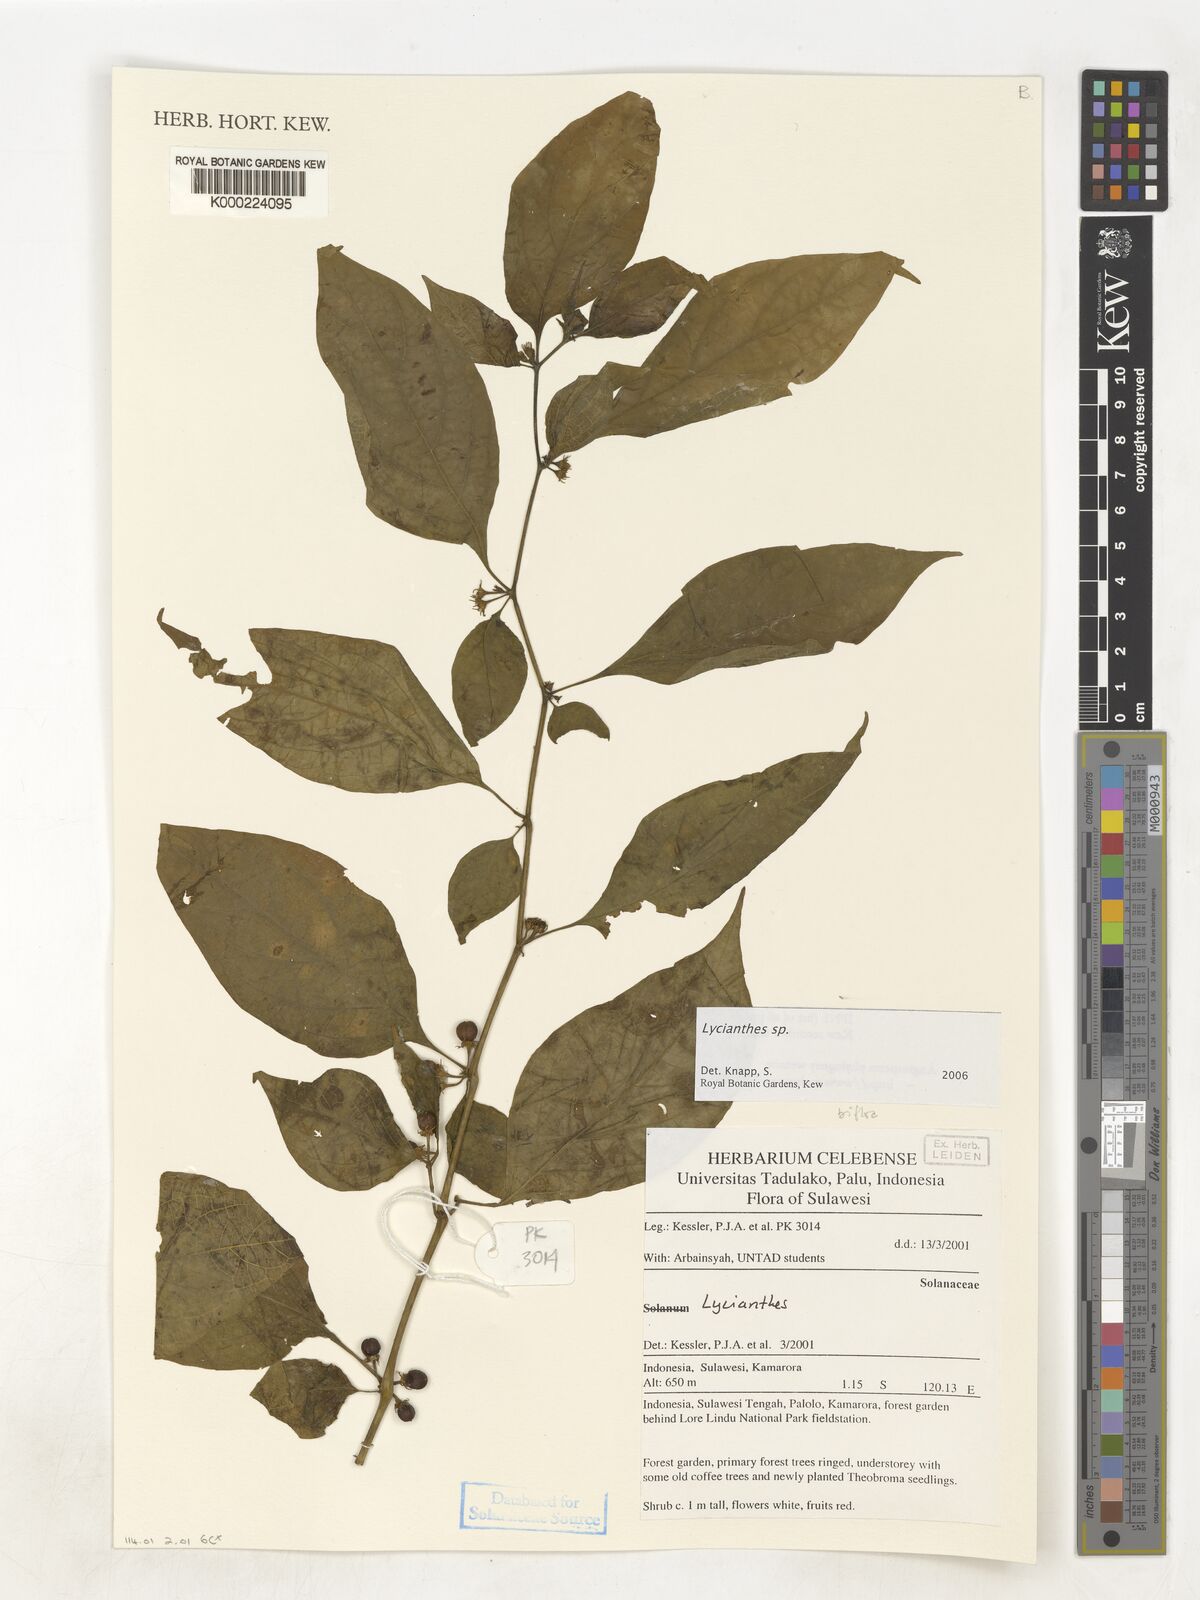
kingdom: Plantae
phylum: Tracheophyta
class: Magnoliopsida
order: Solanales
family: Solanaceae
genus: Lycianthes
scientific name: Lycianthes
